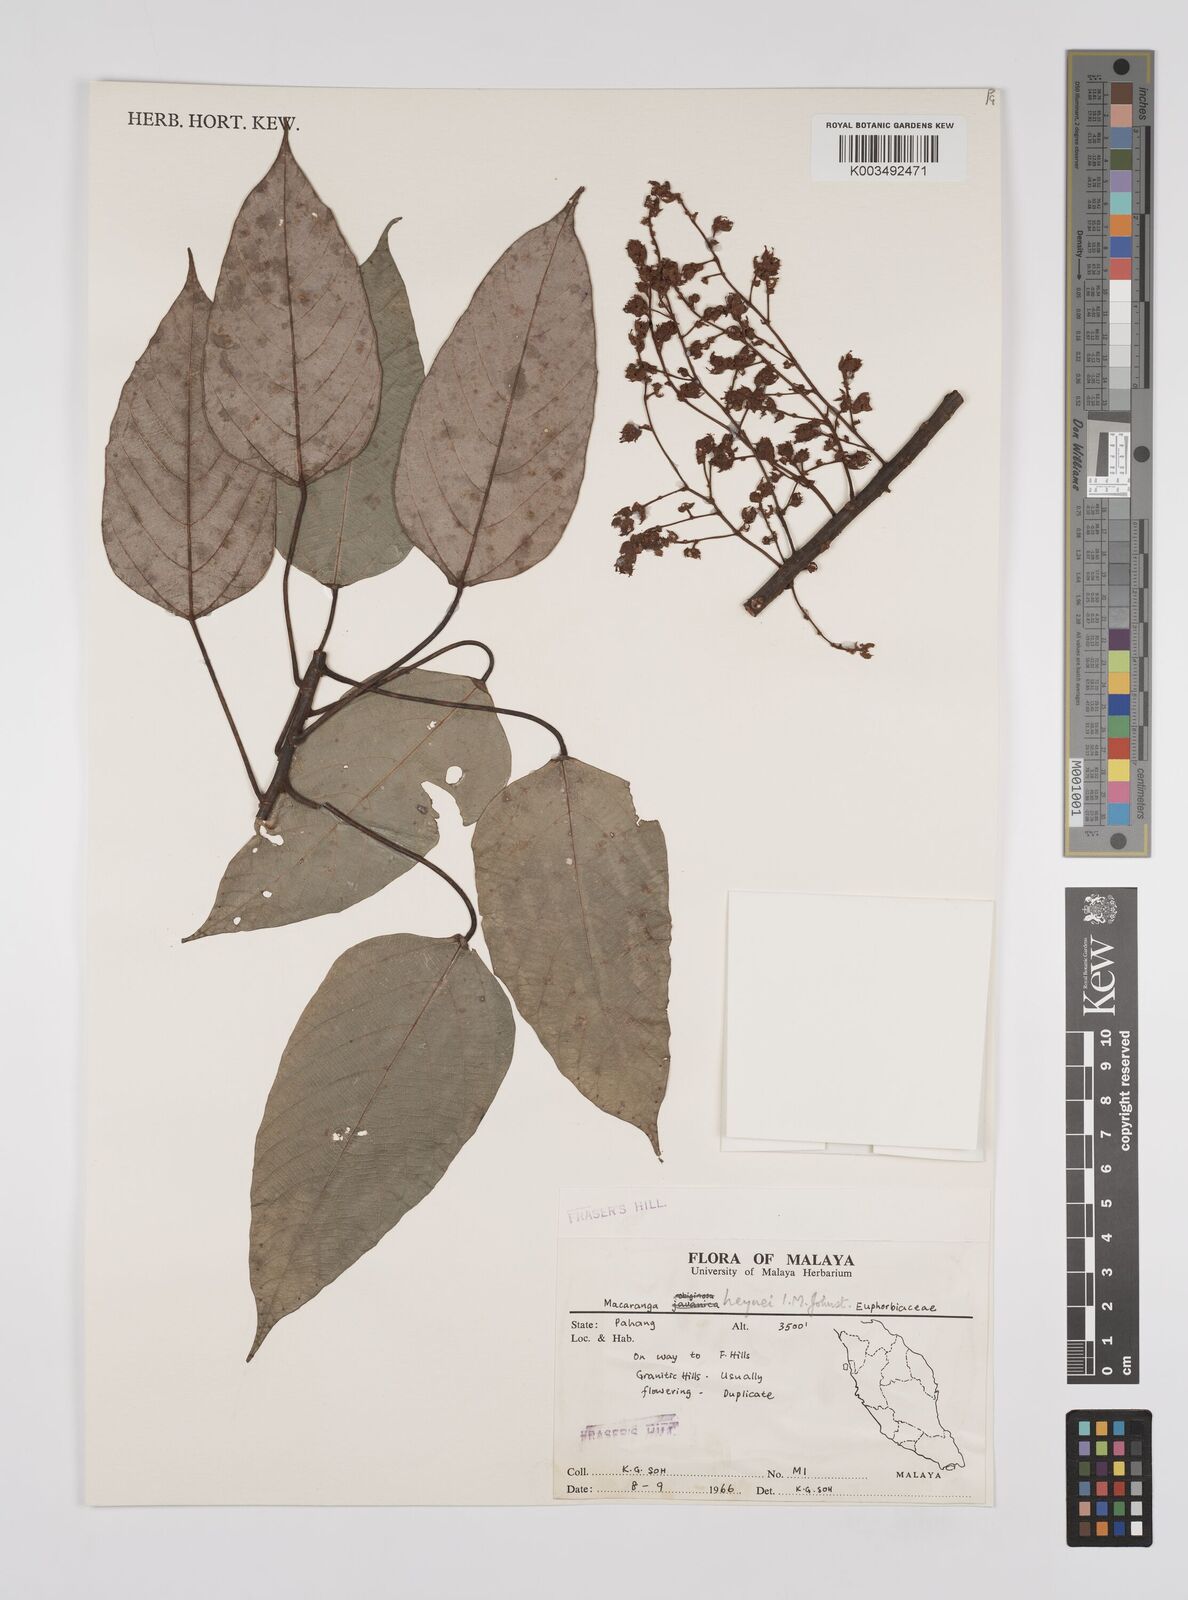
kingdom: Plantae
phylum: Tracheophyta
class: Magnoliopsida
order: Malpighiales
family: Euphorbiaceae
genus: Macaranga
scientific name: Macaranga heynei
